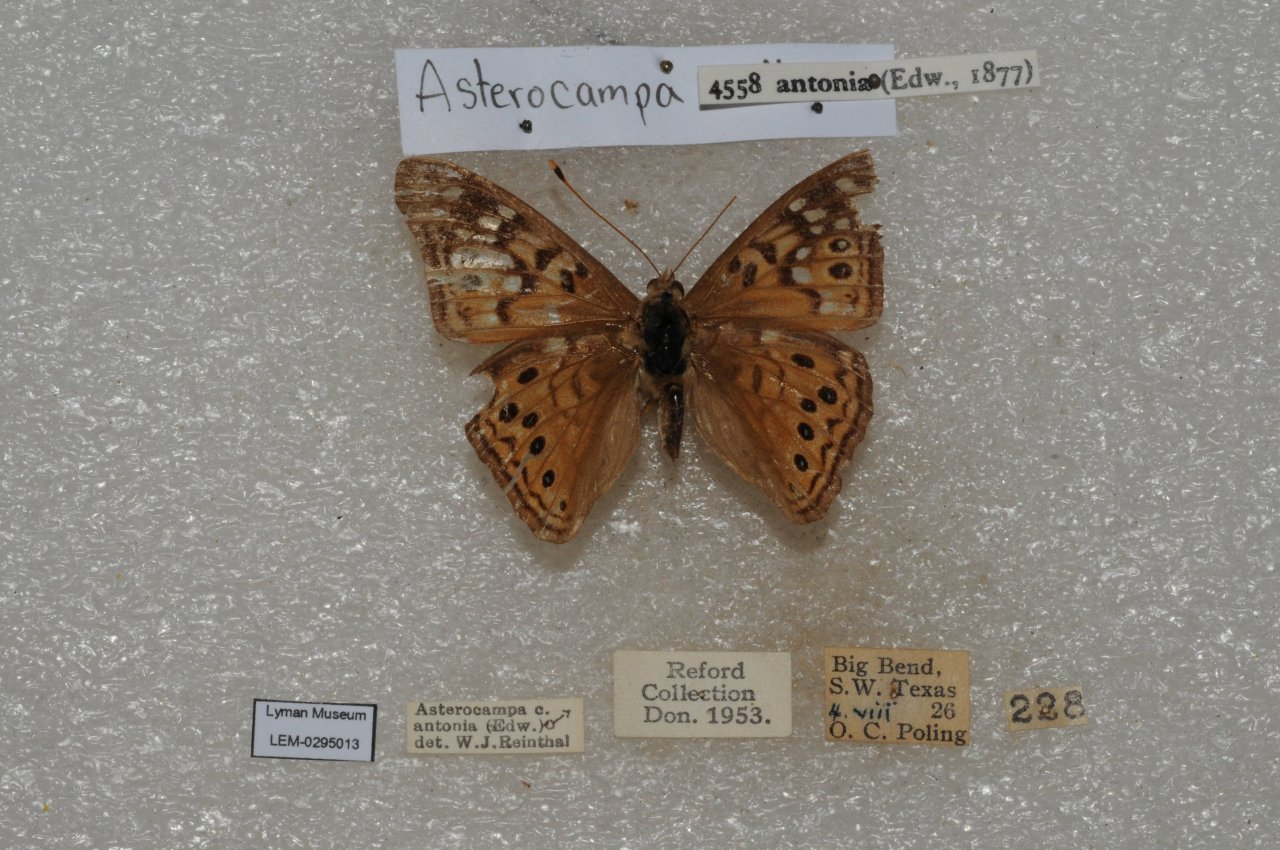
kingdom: Animalia
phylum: Arthropoda
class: Insecta
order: Lepidoptera
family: Nymphalidae
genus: Asterocampa
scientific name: Asterocampa celtis
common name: Hackberry Emperor
